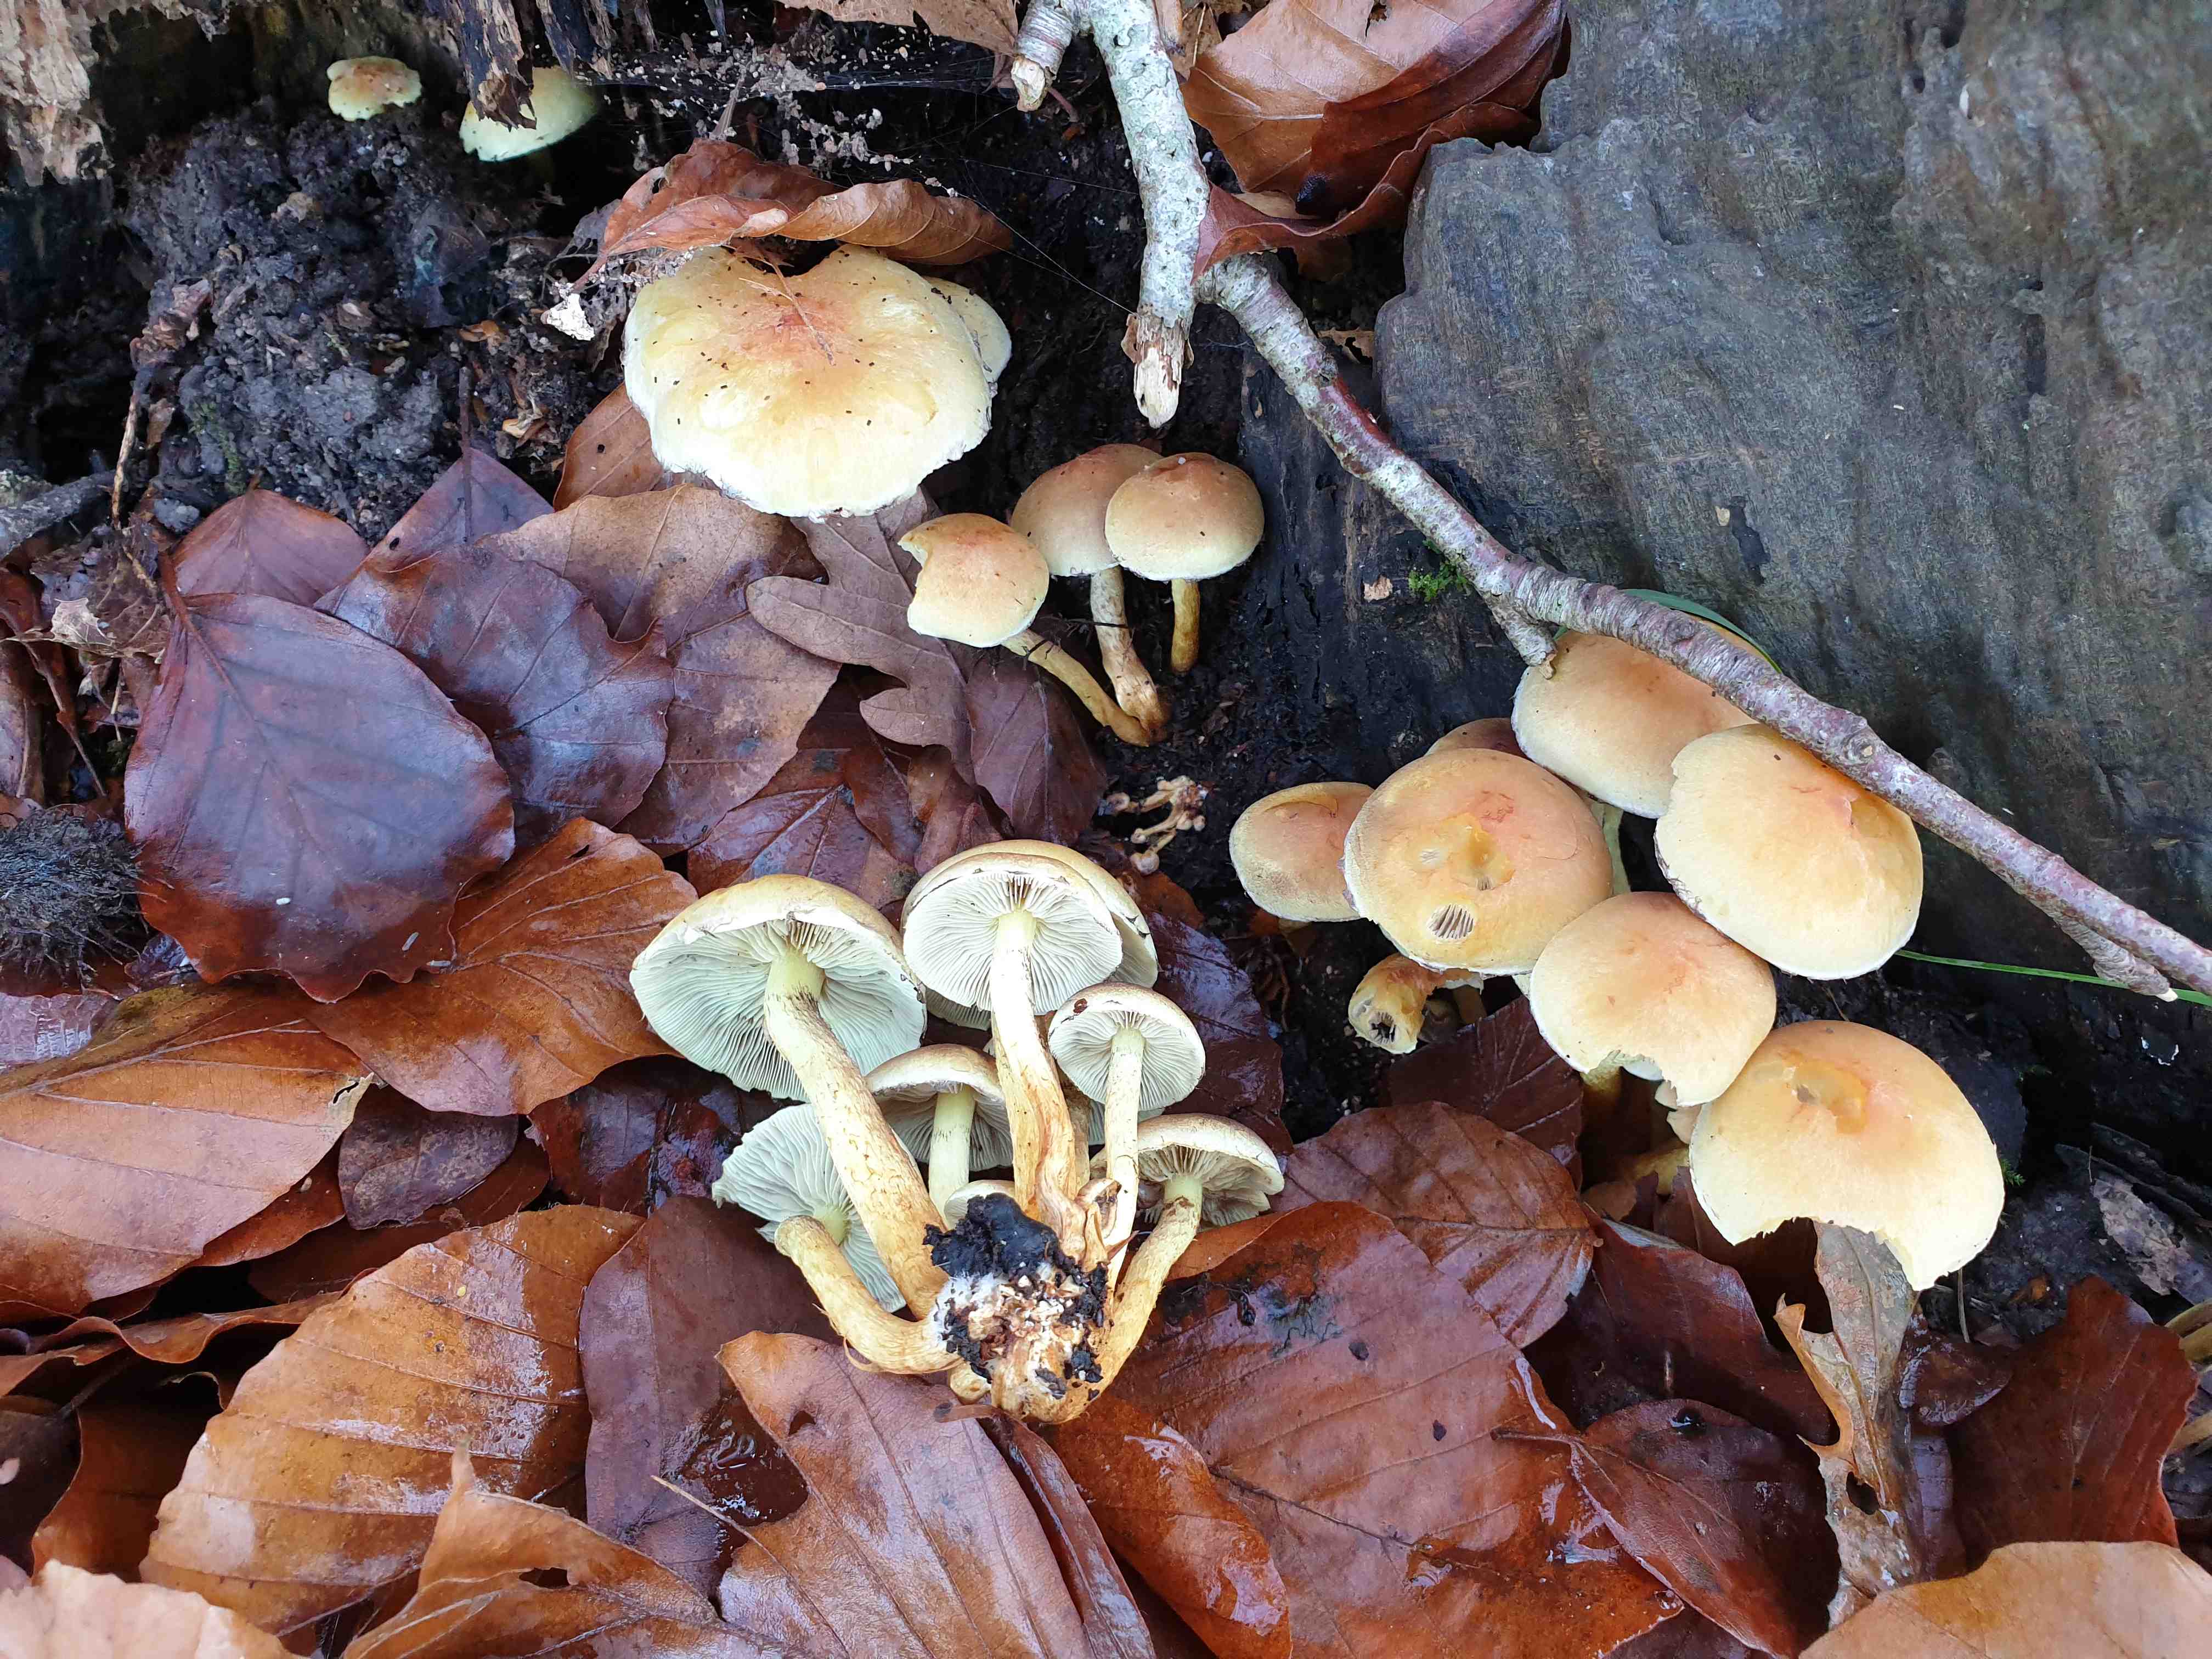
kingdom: Fungi
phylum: Basidiomycota
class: Agaricomycetes
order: Agaricales
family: Strophariaceae
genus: Hypholoma
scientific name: Hypholoma fasciculare
